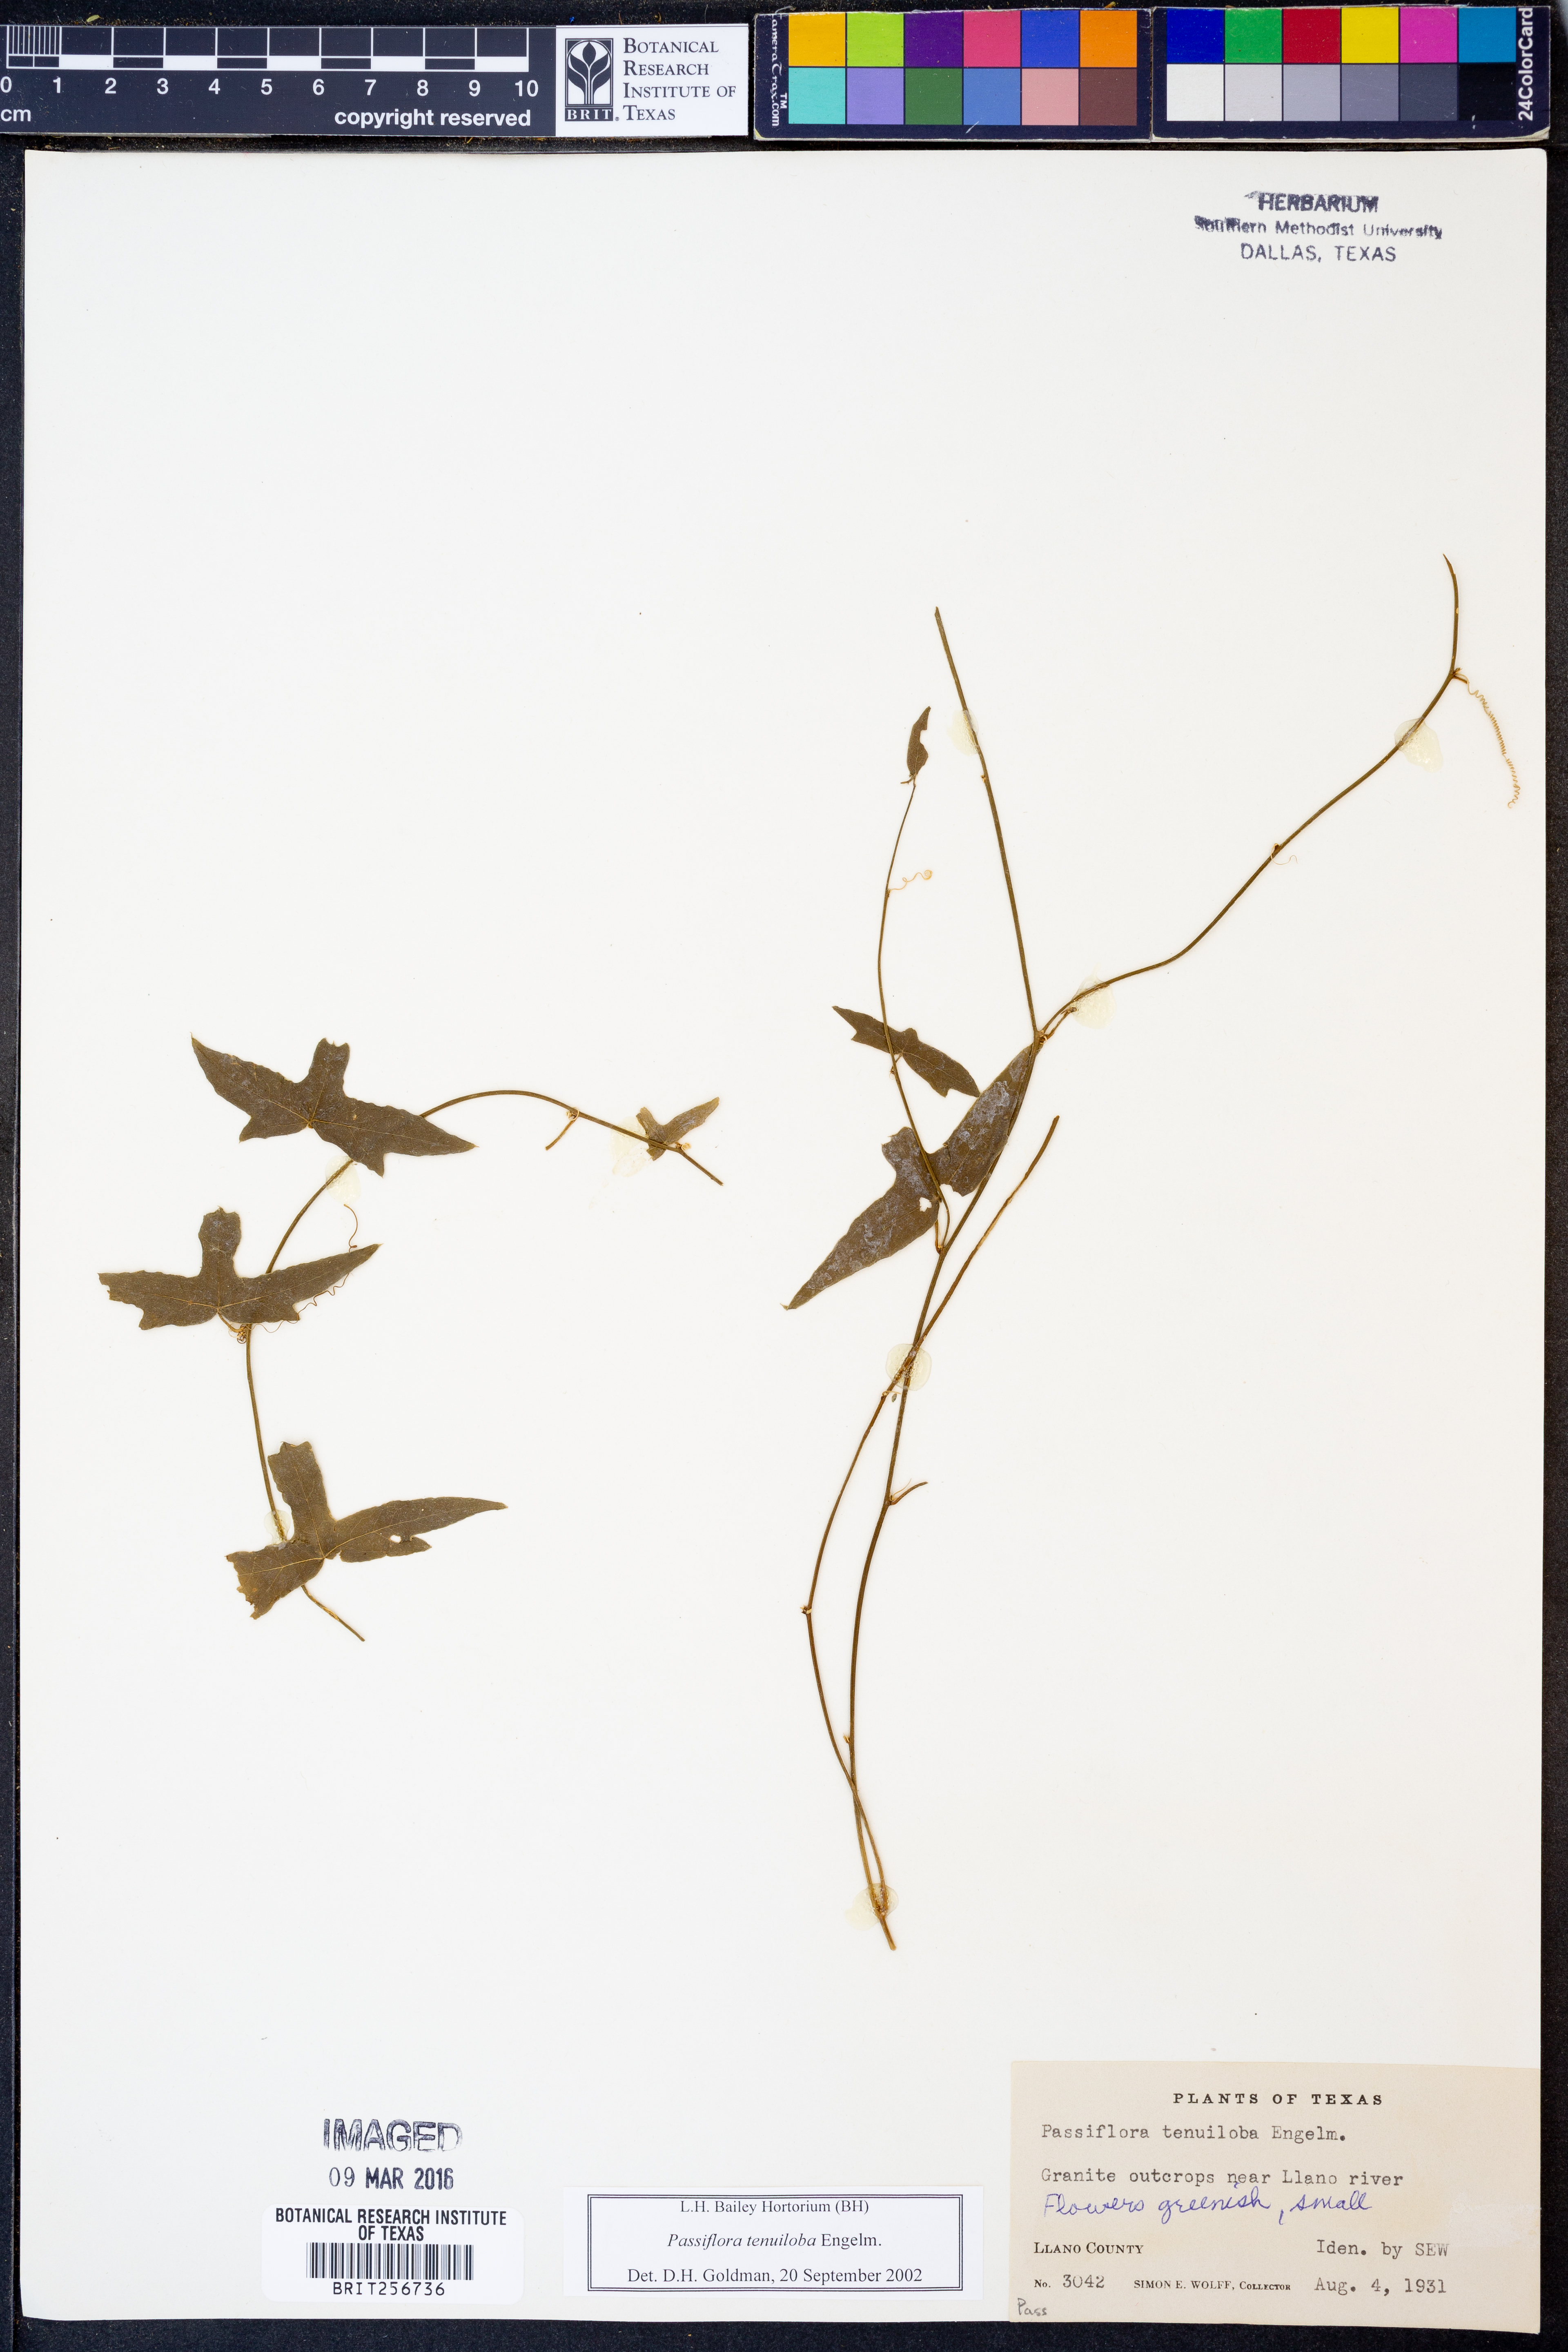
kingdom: Plantae
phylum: Tracheophyta
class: Magnoliopsida
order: Malpighiales
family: Passifloraceae
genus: Passiflora
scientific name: Passiflora tenuiloba
